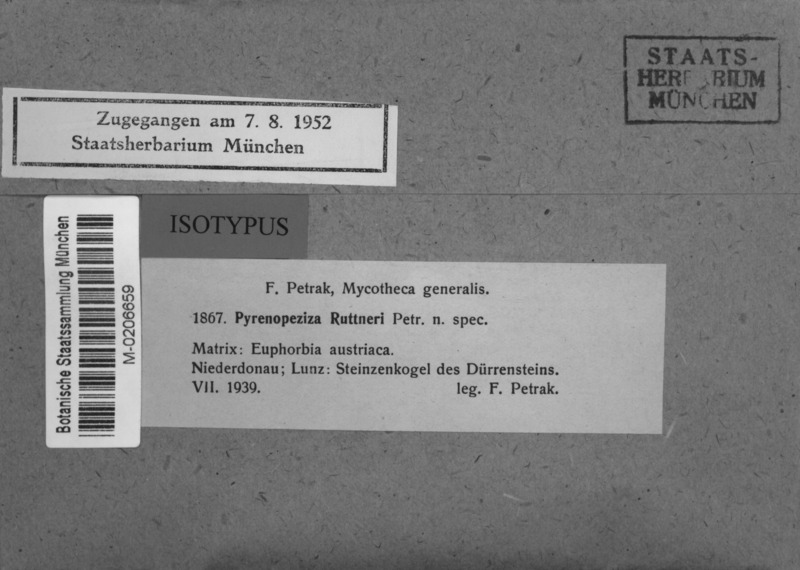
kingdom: Fungi
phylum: Ascomycota
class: Leotiomycetes
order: Helotiales
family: Ploettnerulaceae
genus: Pyrenopeziza
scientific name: Pyrenopeziza ruttneri
